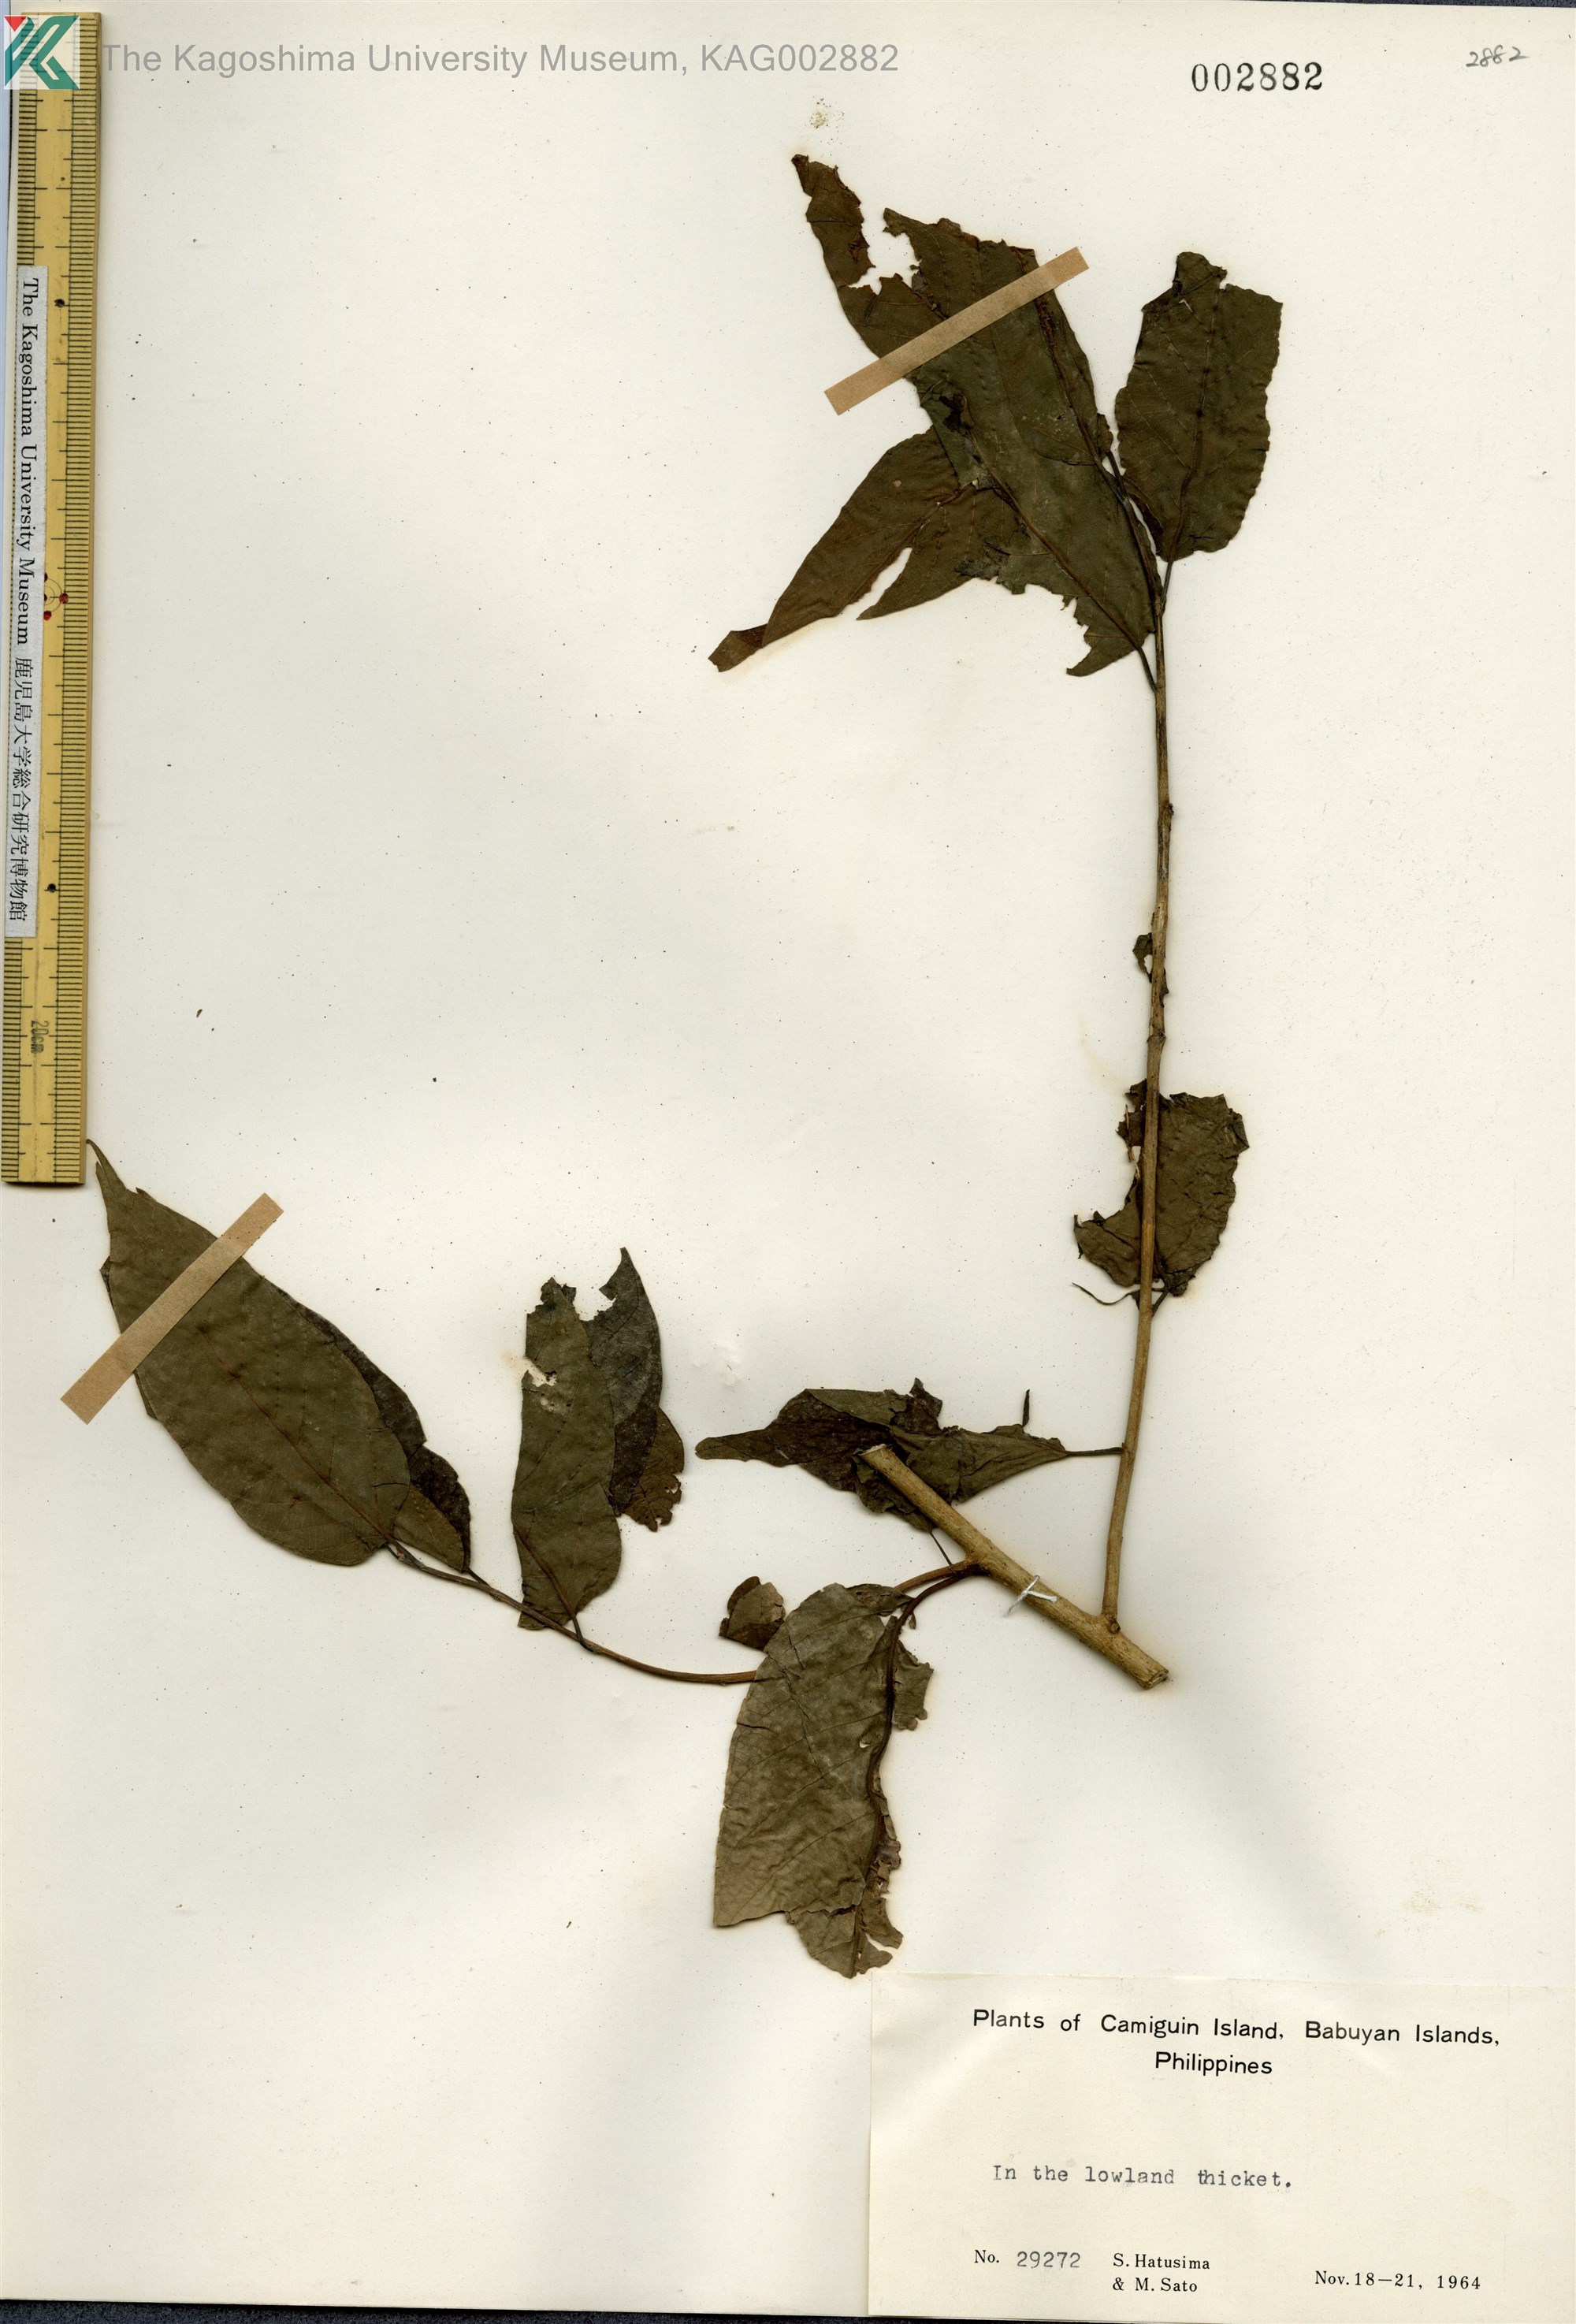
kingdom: Plantae
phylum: Tracheophyta
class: Magnoliopsida
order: Magnoliales
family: Annonaceae
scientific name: Annonaceae
